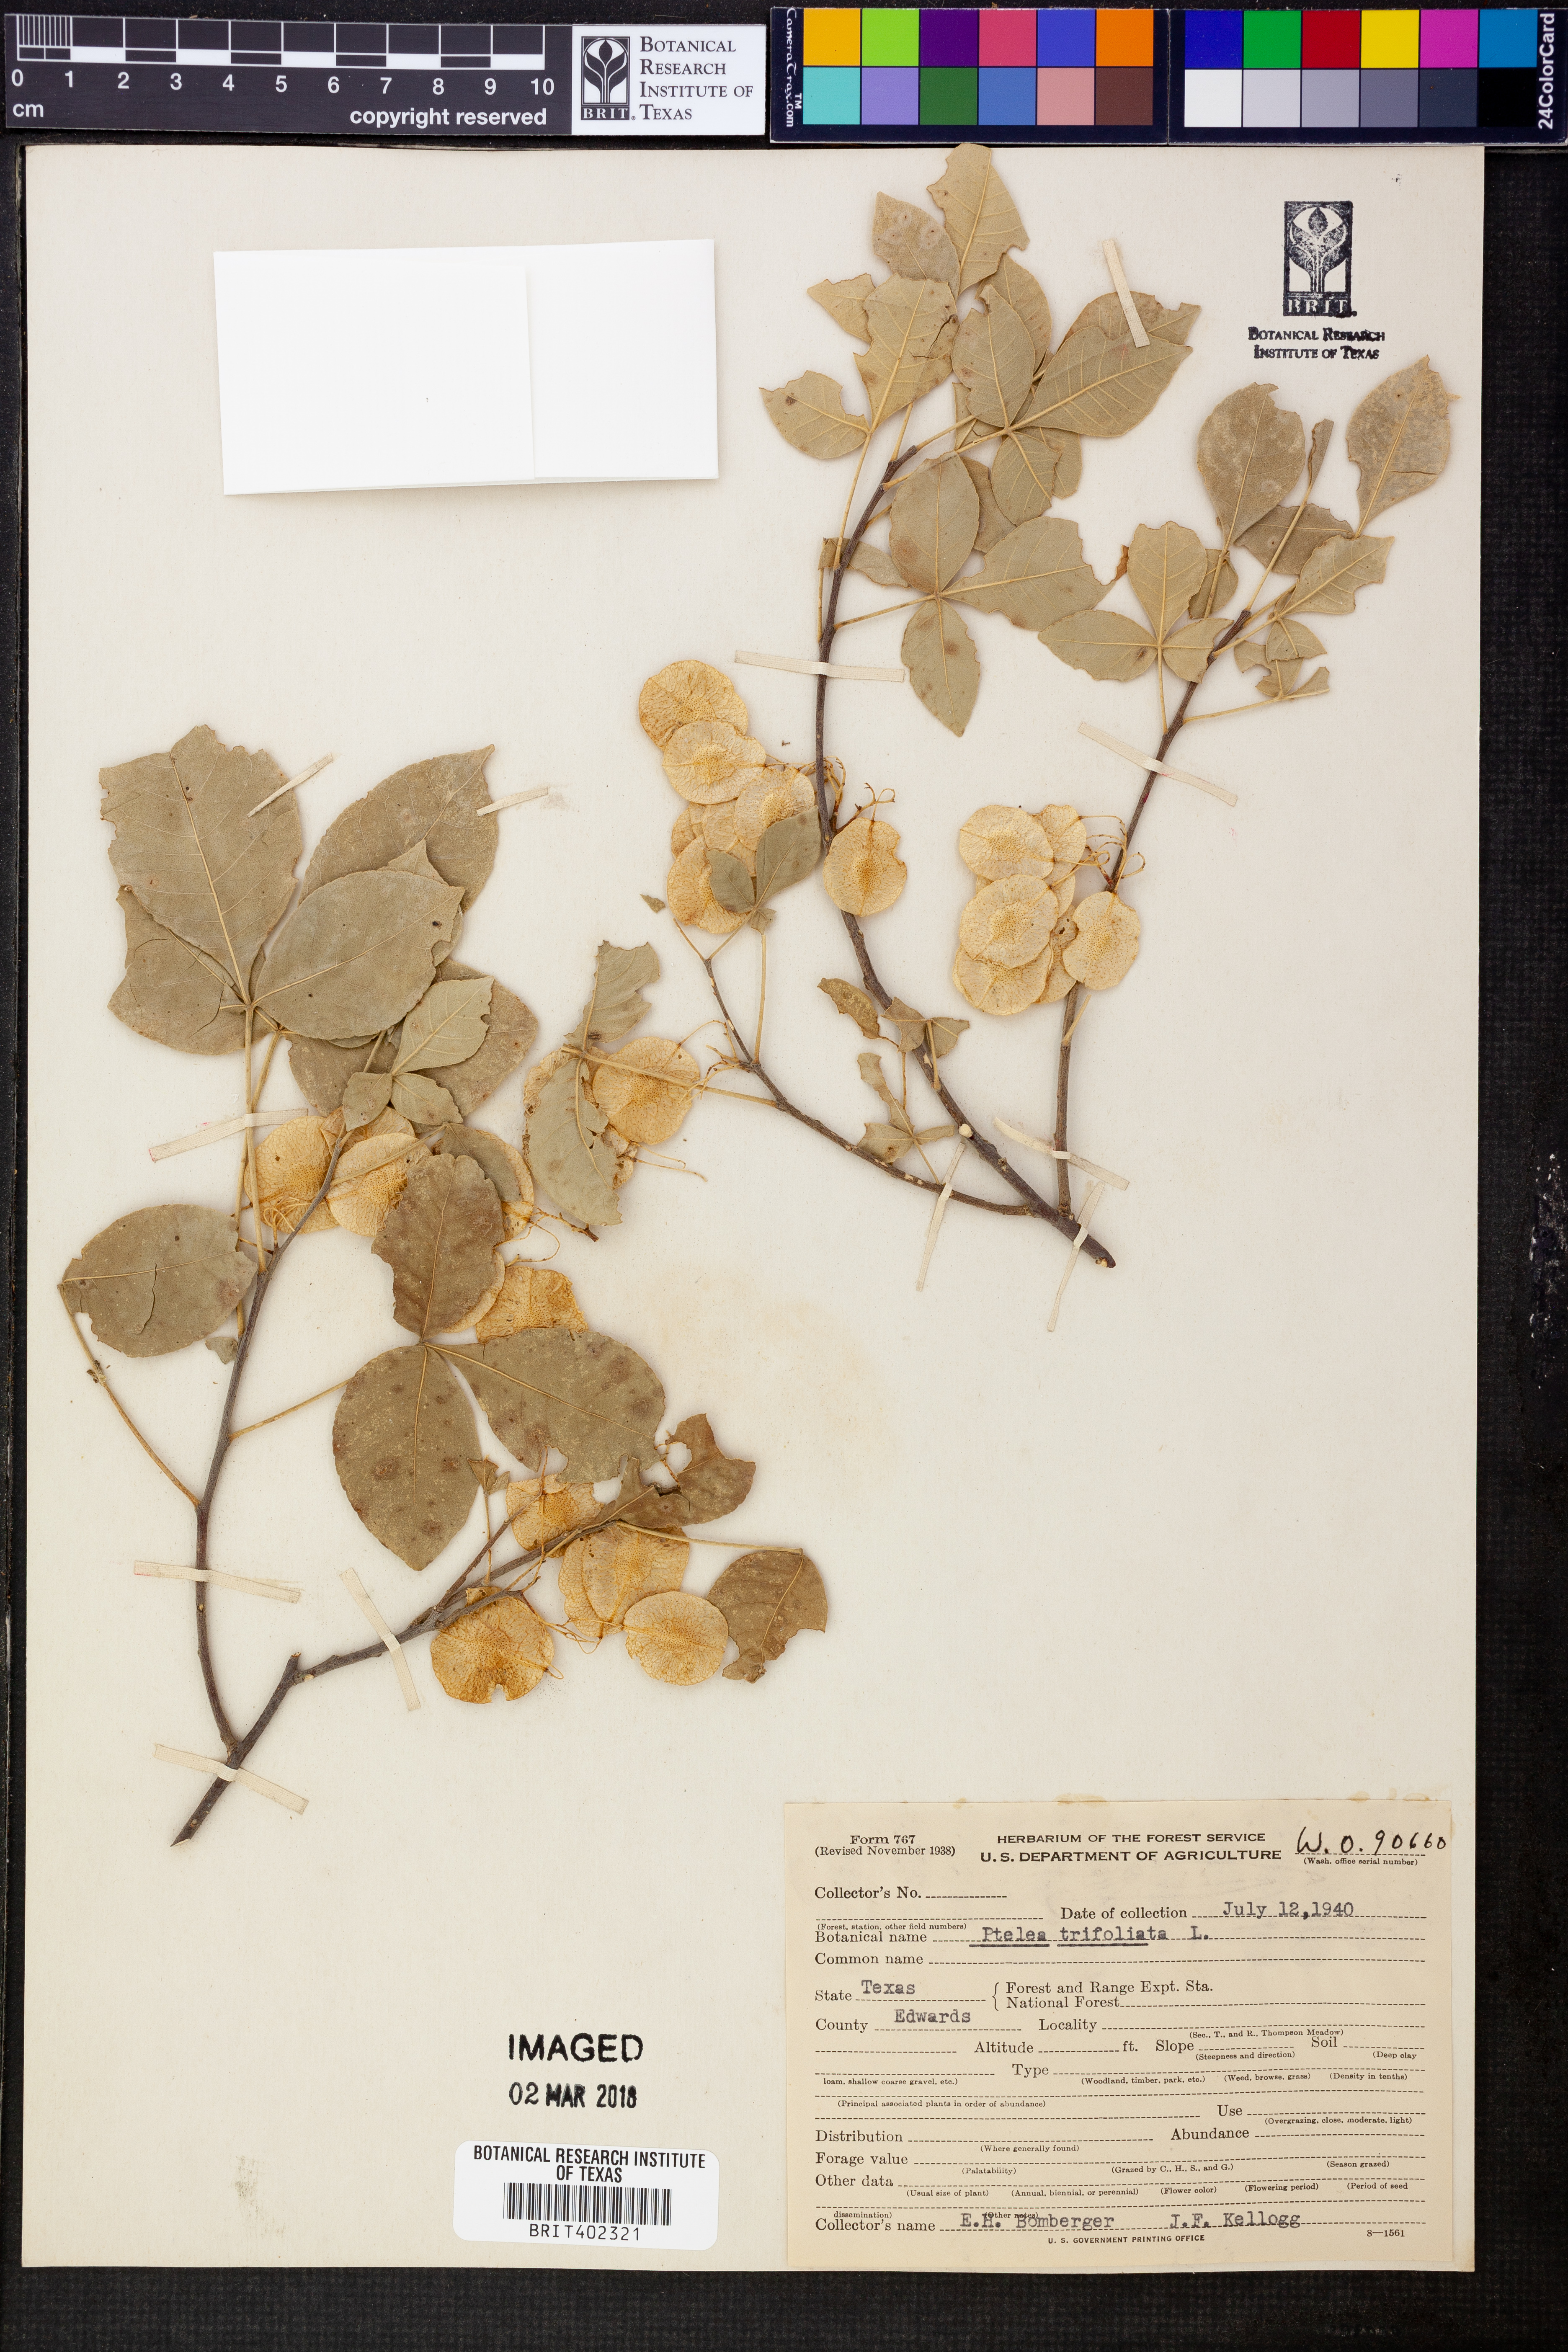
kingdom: Plantae
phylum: Tracheophyta
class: Magnoliopsida
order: Sapindales
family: Rutaceae
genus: Ptelea
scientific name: Ptelea trifoliata
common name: Common hop-tree
